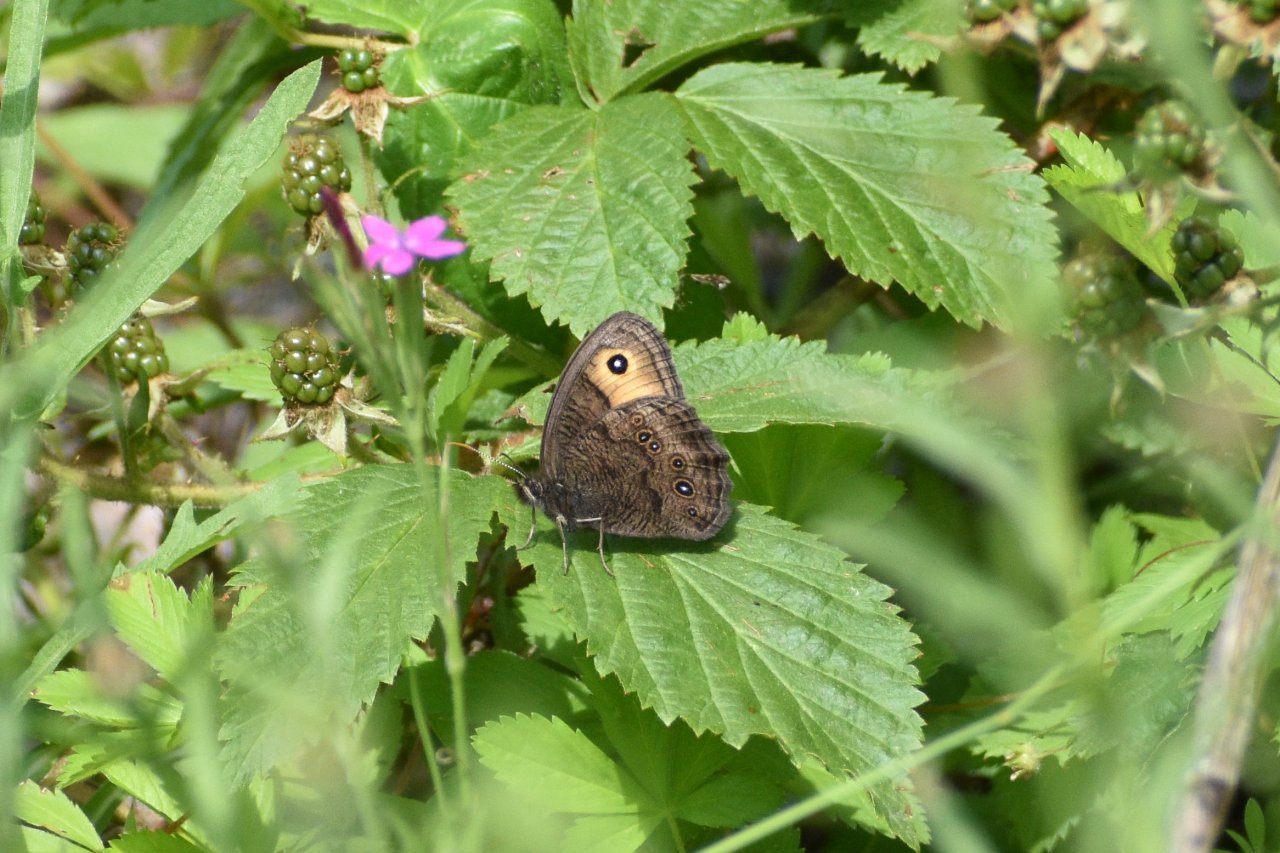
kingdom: Animalia
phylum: Arthropoda
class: Insecta
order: Lepidoptera
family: Nymphalidae
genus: Cercyonis
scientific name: Cercyonis pegala
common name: Common Wood-Nymph
